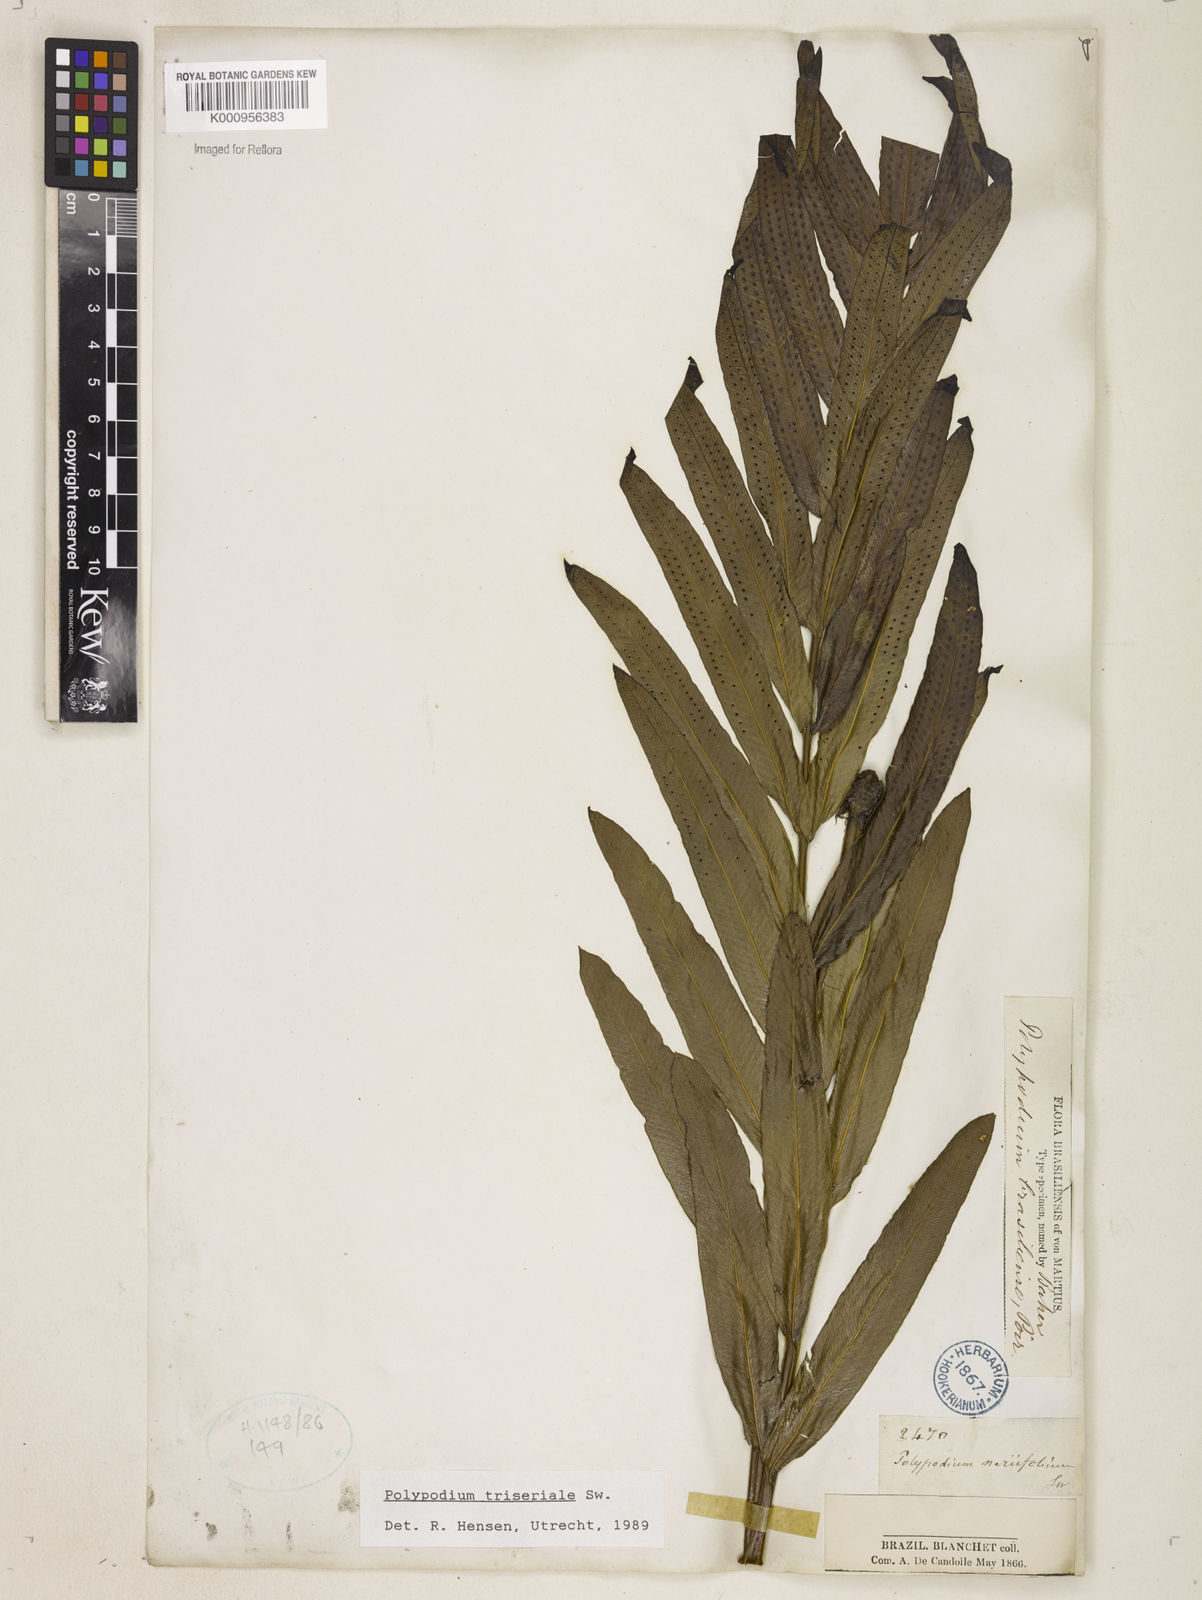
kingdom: Plantae
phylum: Tracheophyta
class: Polypodiopsida
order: Polypodiales
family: Polypodiaceae
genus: Serpocaulon
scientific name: Serpocaulon triseriale
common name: Angle-vein fern
